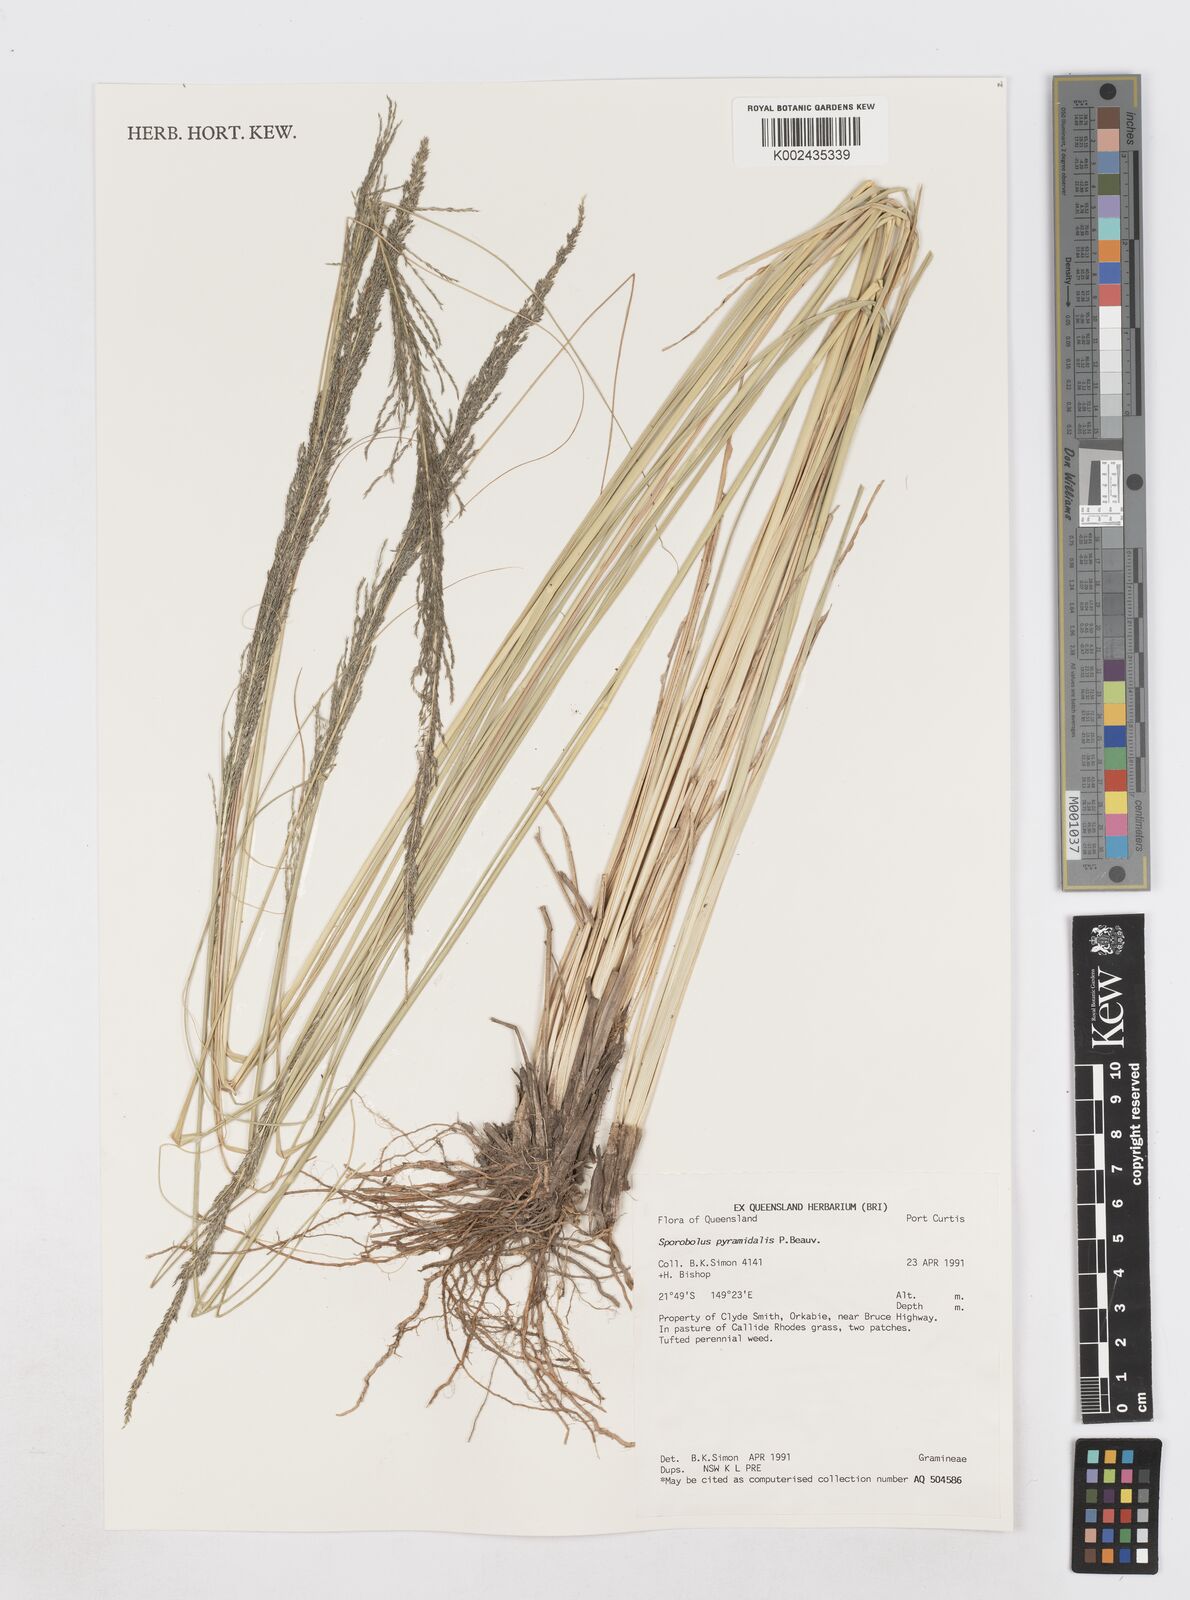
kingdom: Plantae
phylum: Tracheophyta
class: Liliopsida
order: Poales
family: Poaceae
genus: Sporobolus
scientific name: Sporobolus pyramidalis
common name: West indian dropseed
